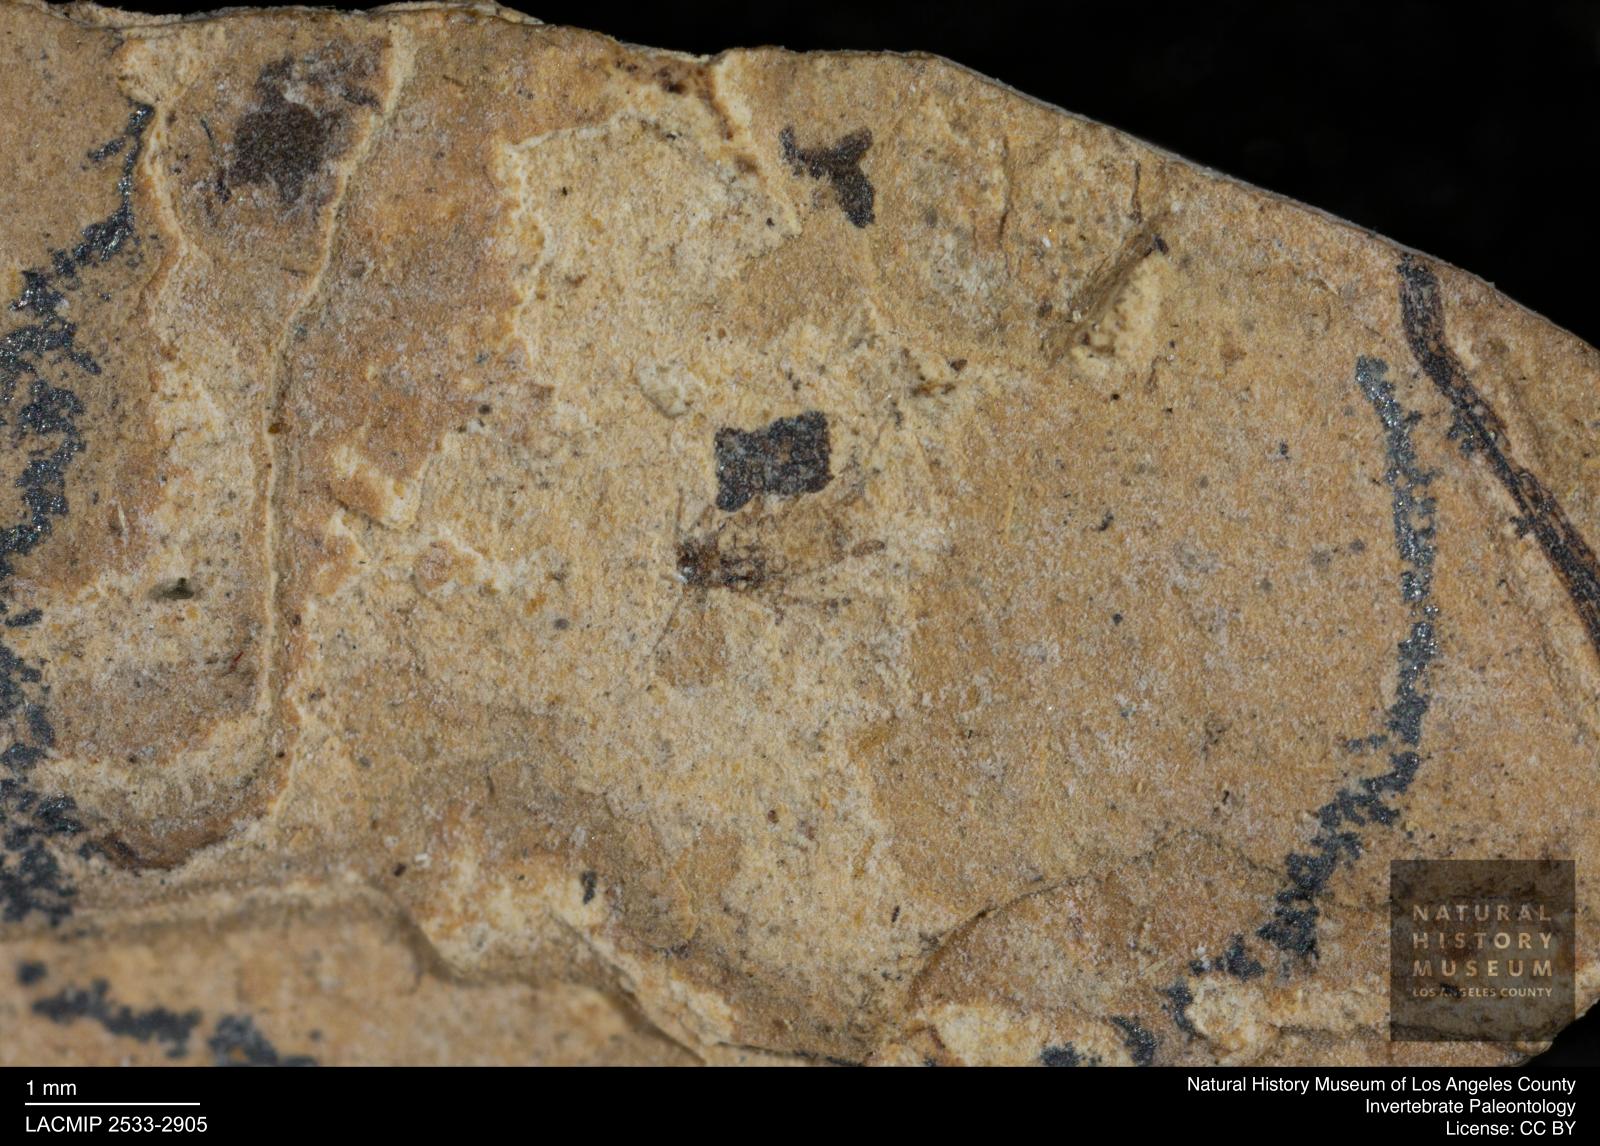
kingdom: Animalia
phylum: Arthropoda
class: Insecta
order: Hemiptera
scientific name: Hemiptera
